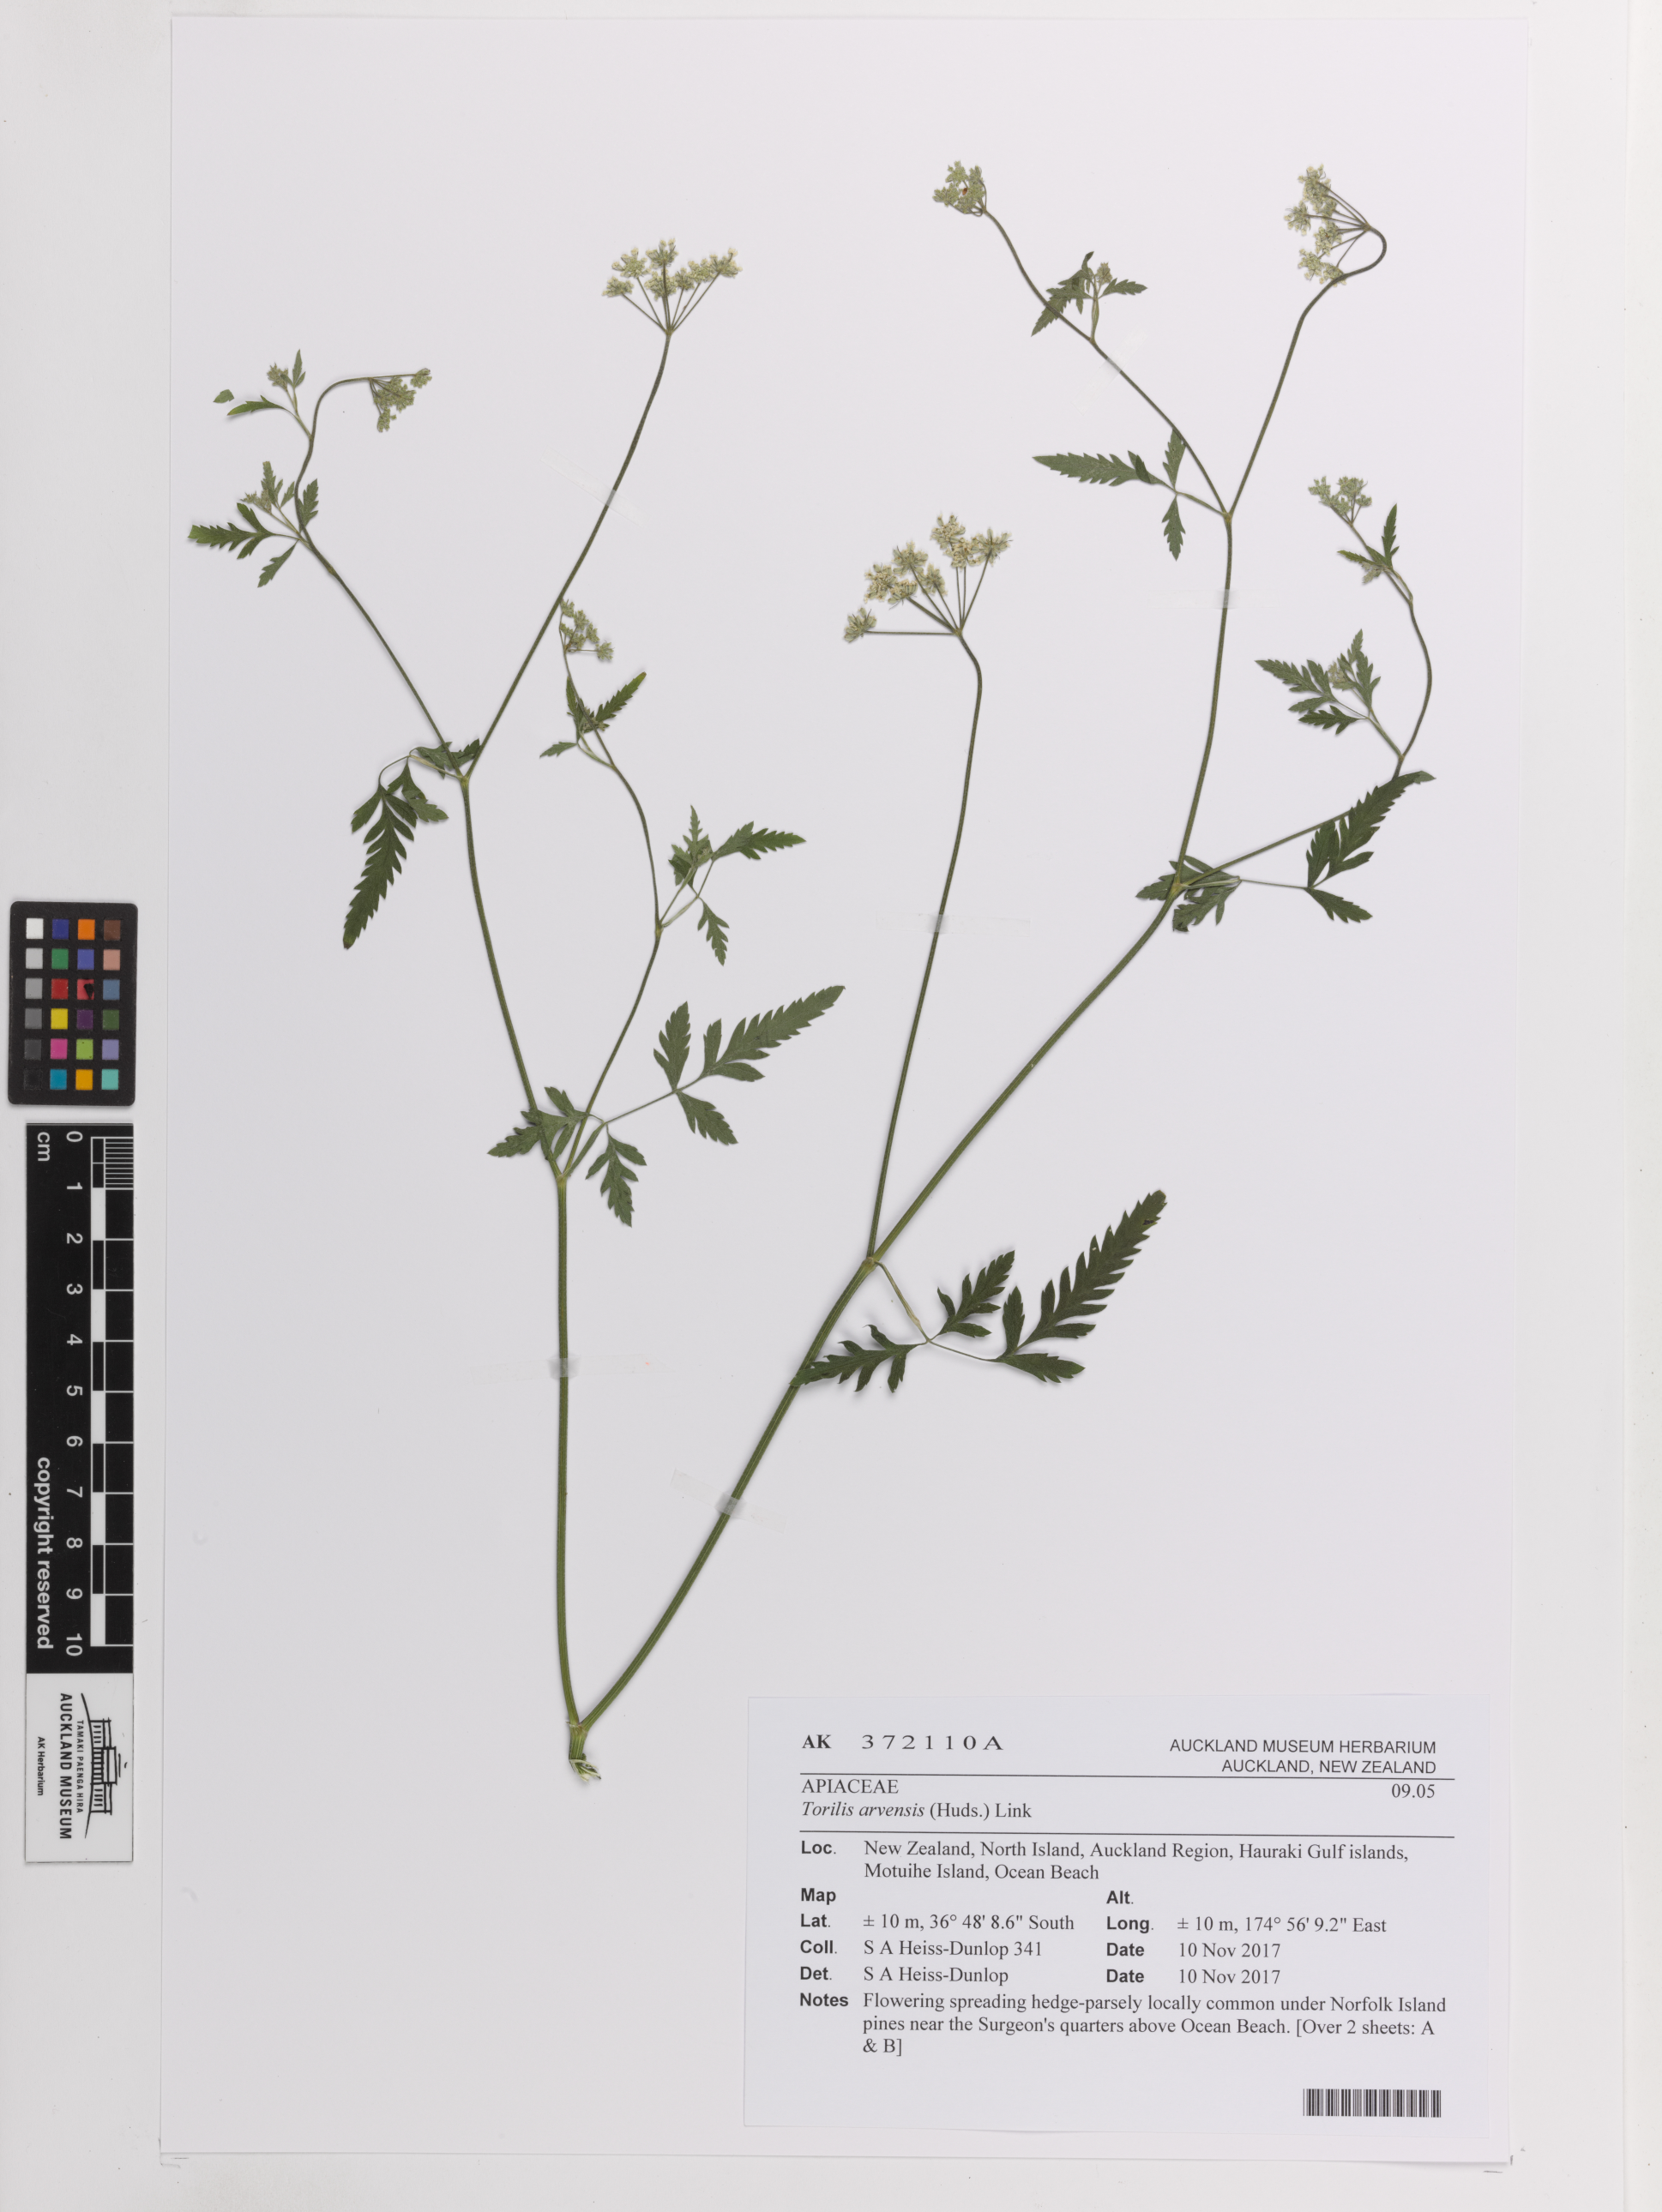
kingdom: Plantae
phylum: Tracheophyta
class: Magnoliopsida
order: Apiales
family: Apiaceae
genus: Torilis
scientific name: Torilis arvensis
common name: Spreading hedge-parsley
